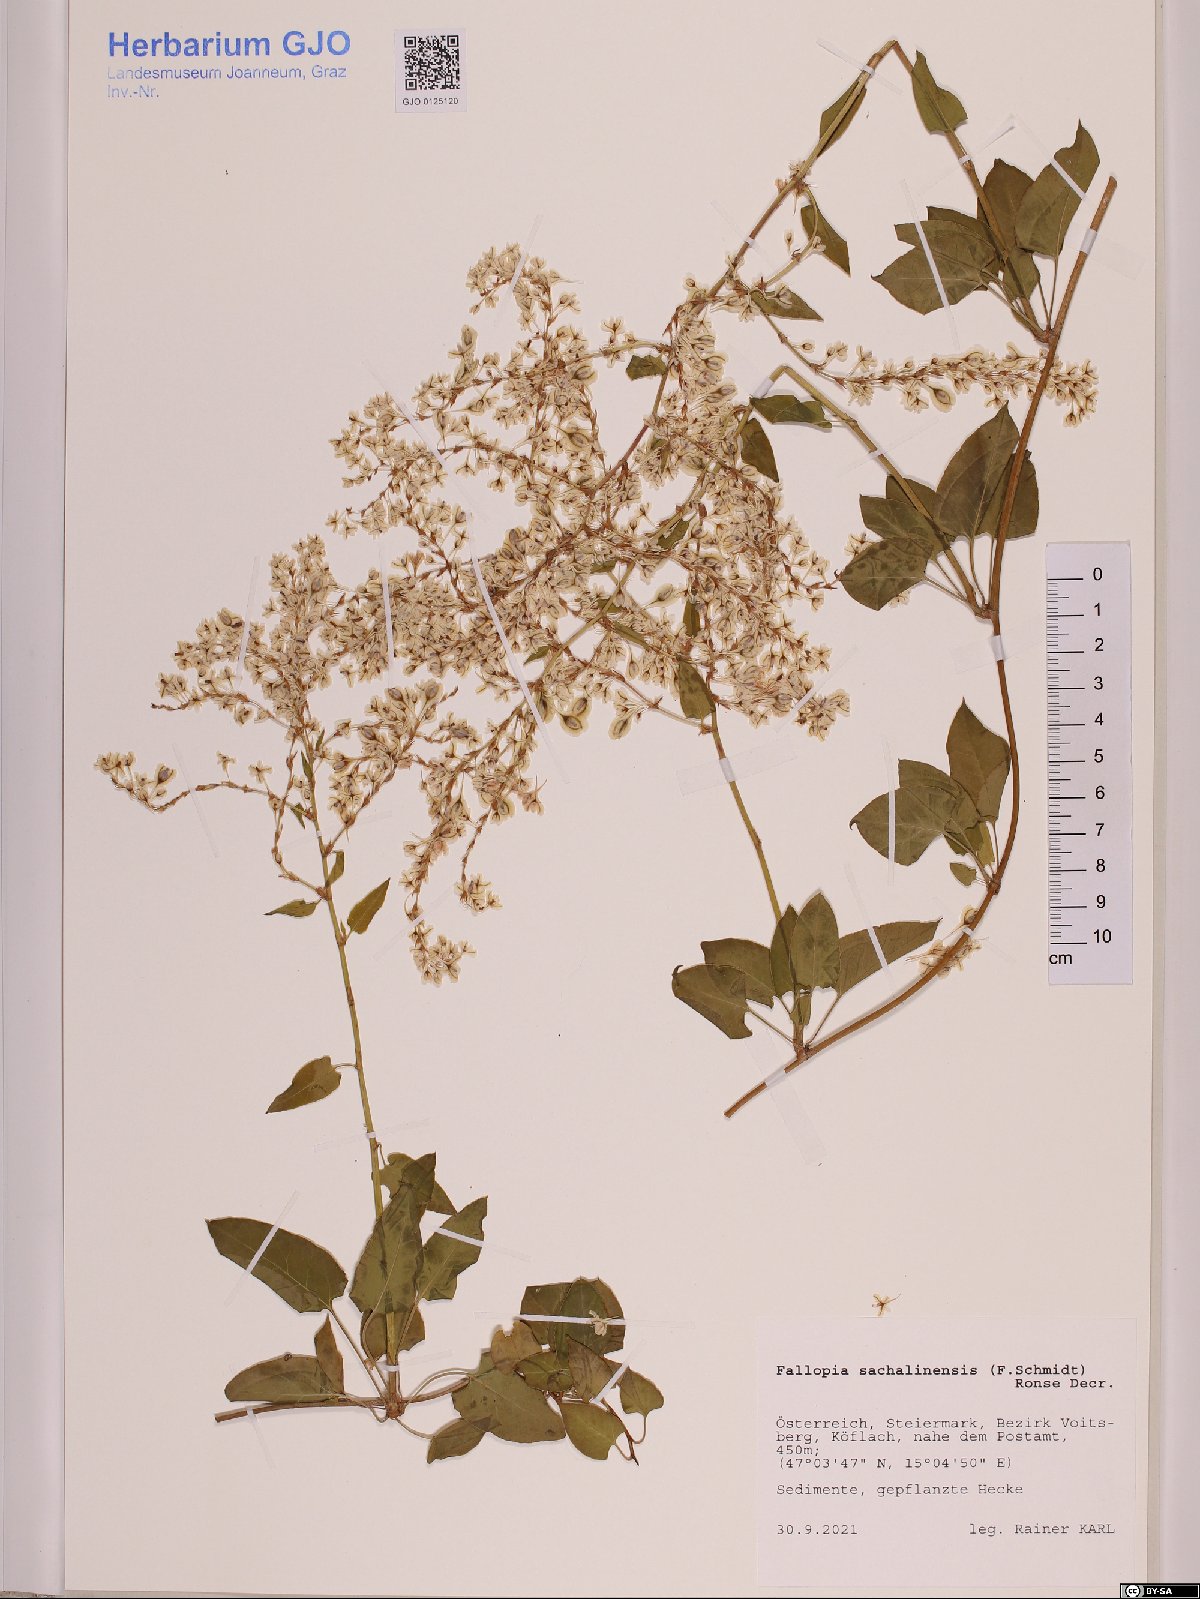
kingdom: Plantae
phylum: Tracheophyta
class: Magnoliopsida
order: Caryophyllales
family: Polygonaceae
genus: Reynoutria
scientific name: Reynoutria sachalinensis
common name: Giant knotweed
